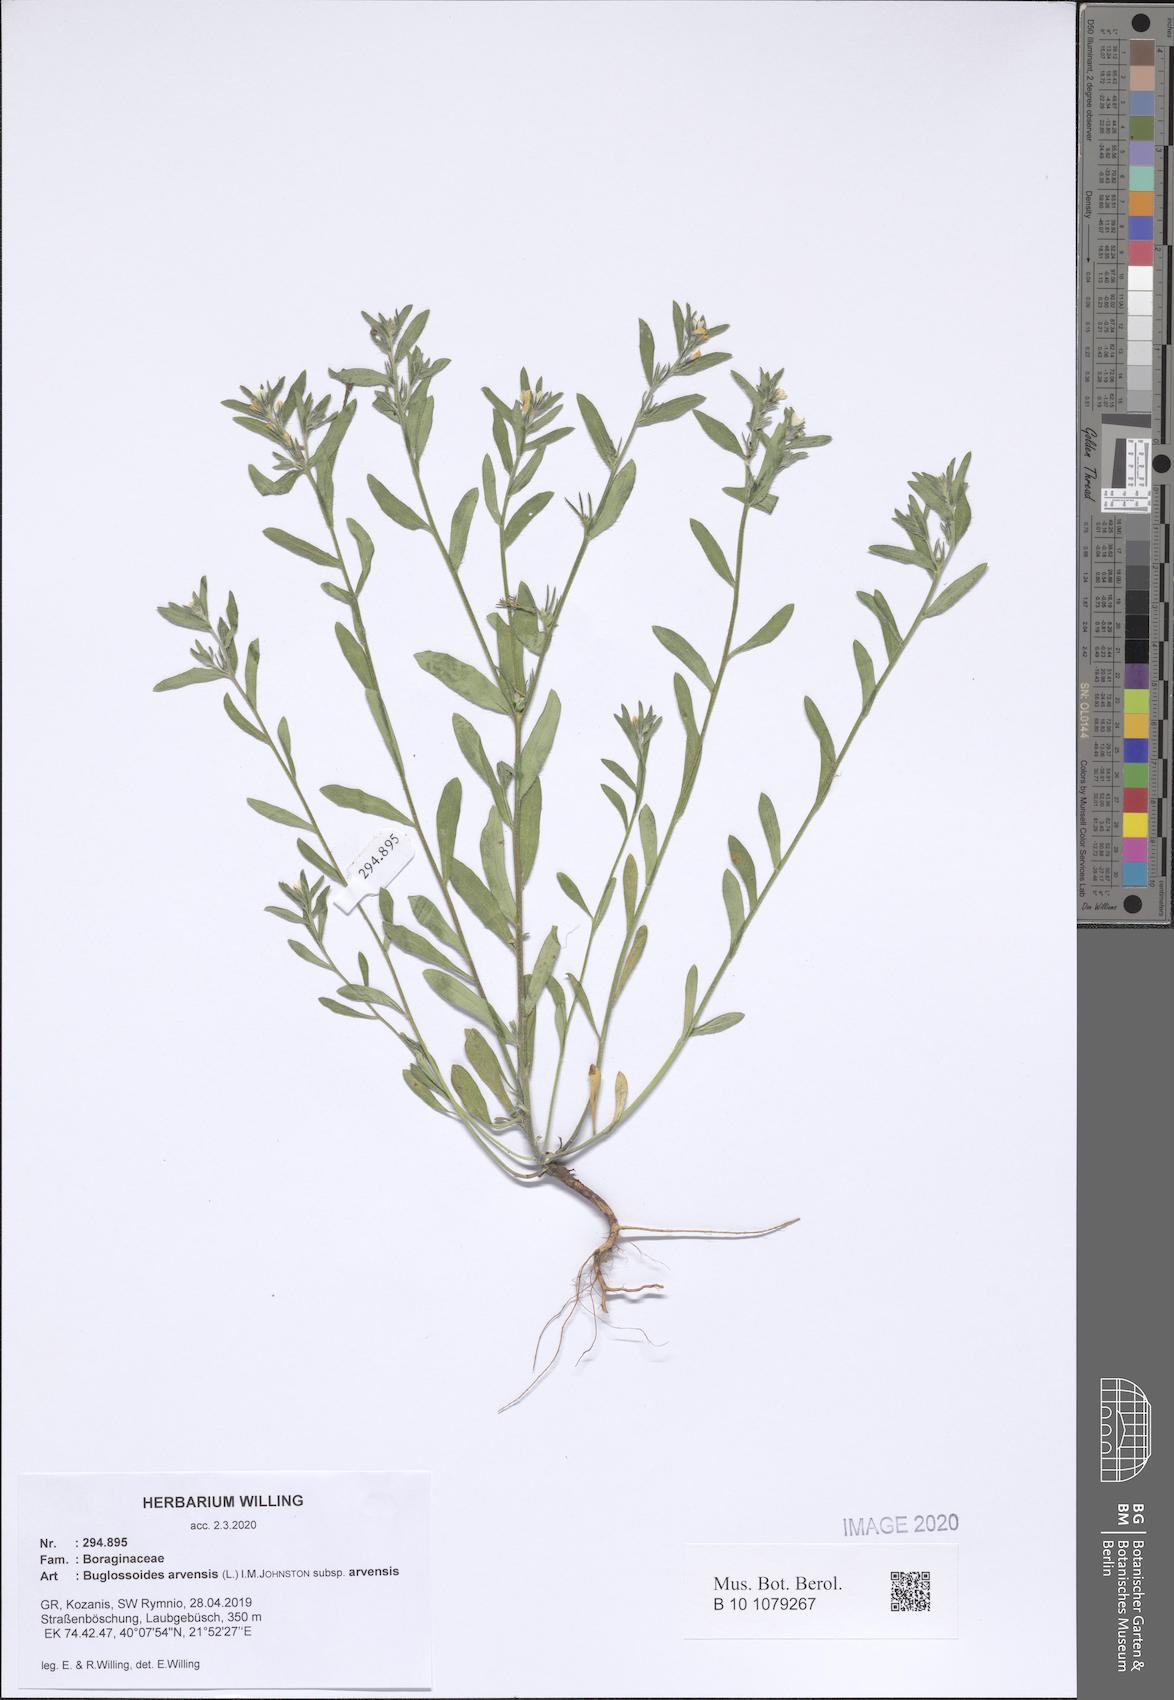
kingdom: Plantae
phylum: Tracheophyta
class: Magnoliopsida
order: Boraginales
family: Boraginaceae
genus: Buglossoides
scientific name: Buglossoides arvensis
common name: Corn gromwell
